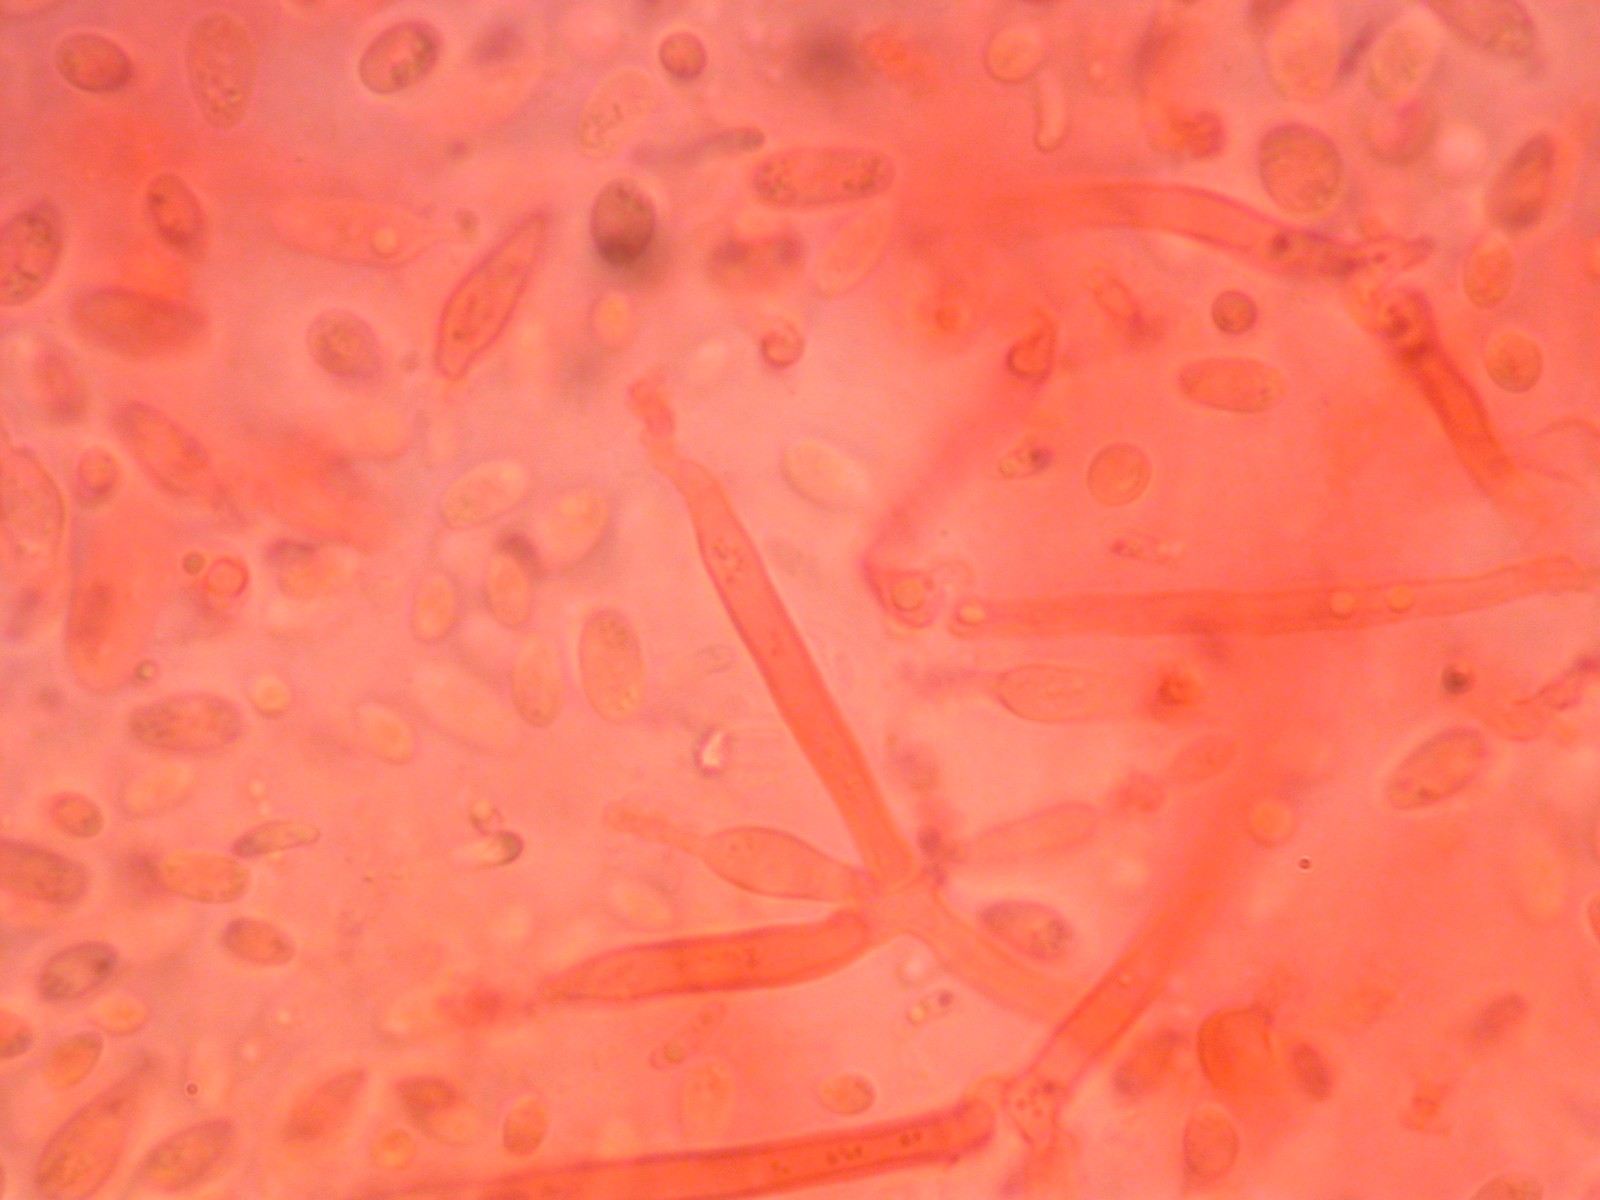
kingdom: Fungi
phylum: Basidiomycota
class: Tremellomycetes
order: Tremellales
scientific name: Tremellales
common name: bævresvampordenen
